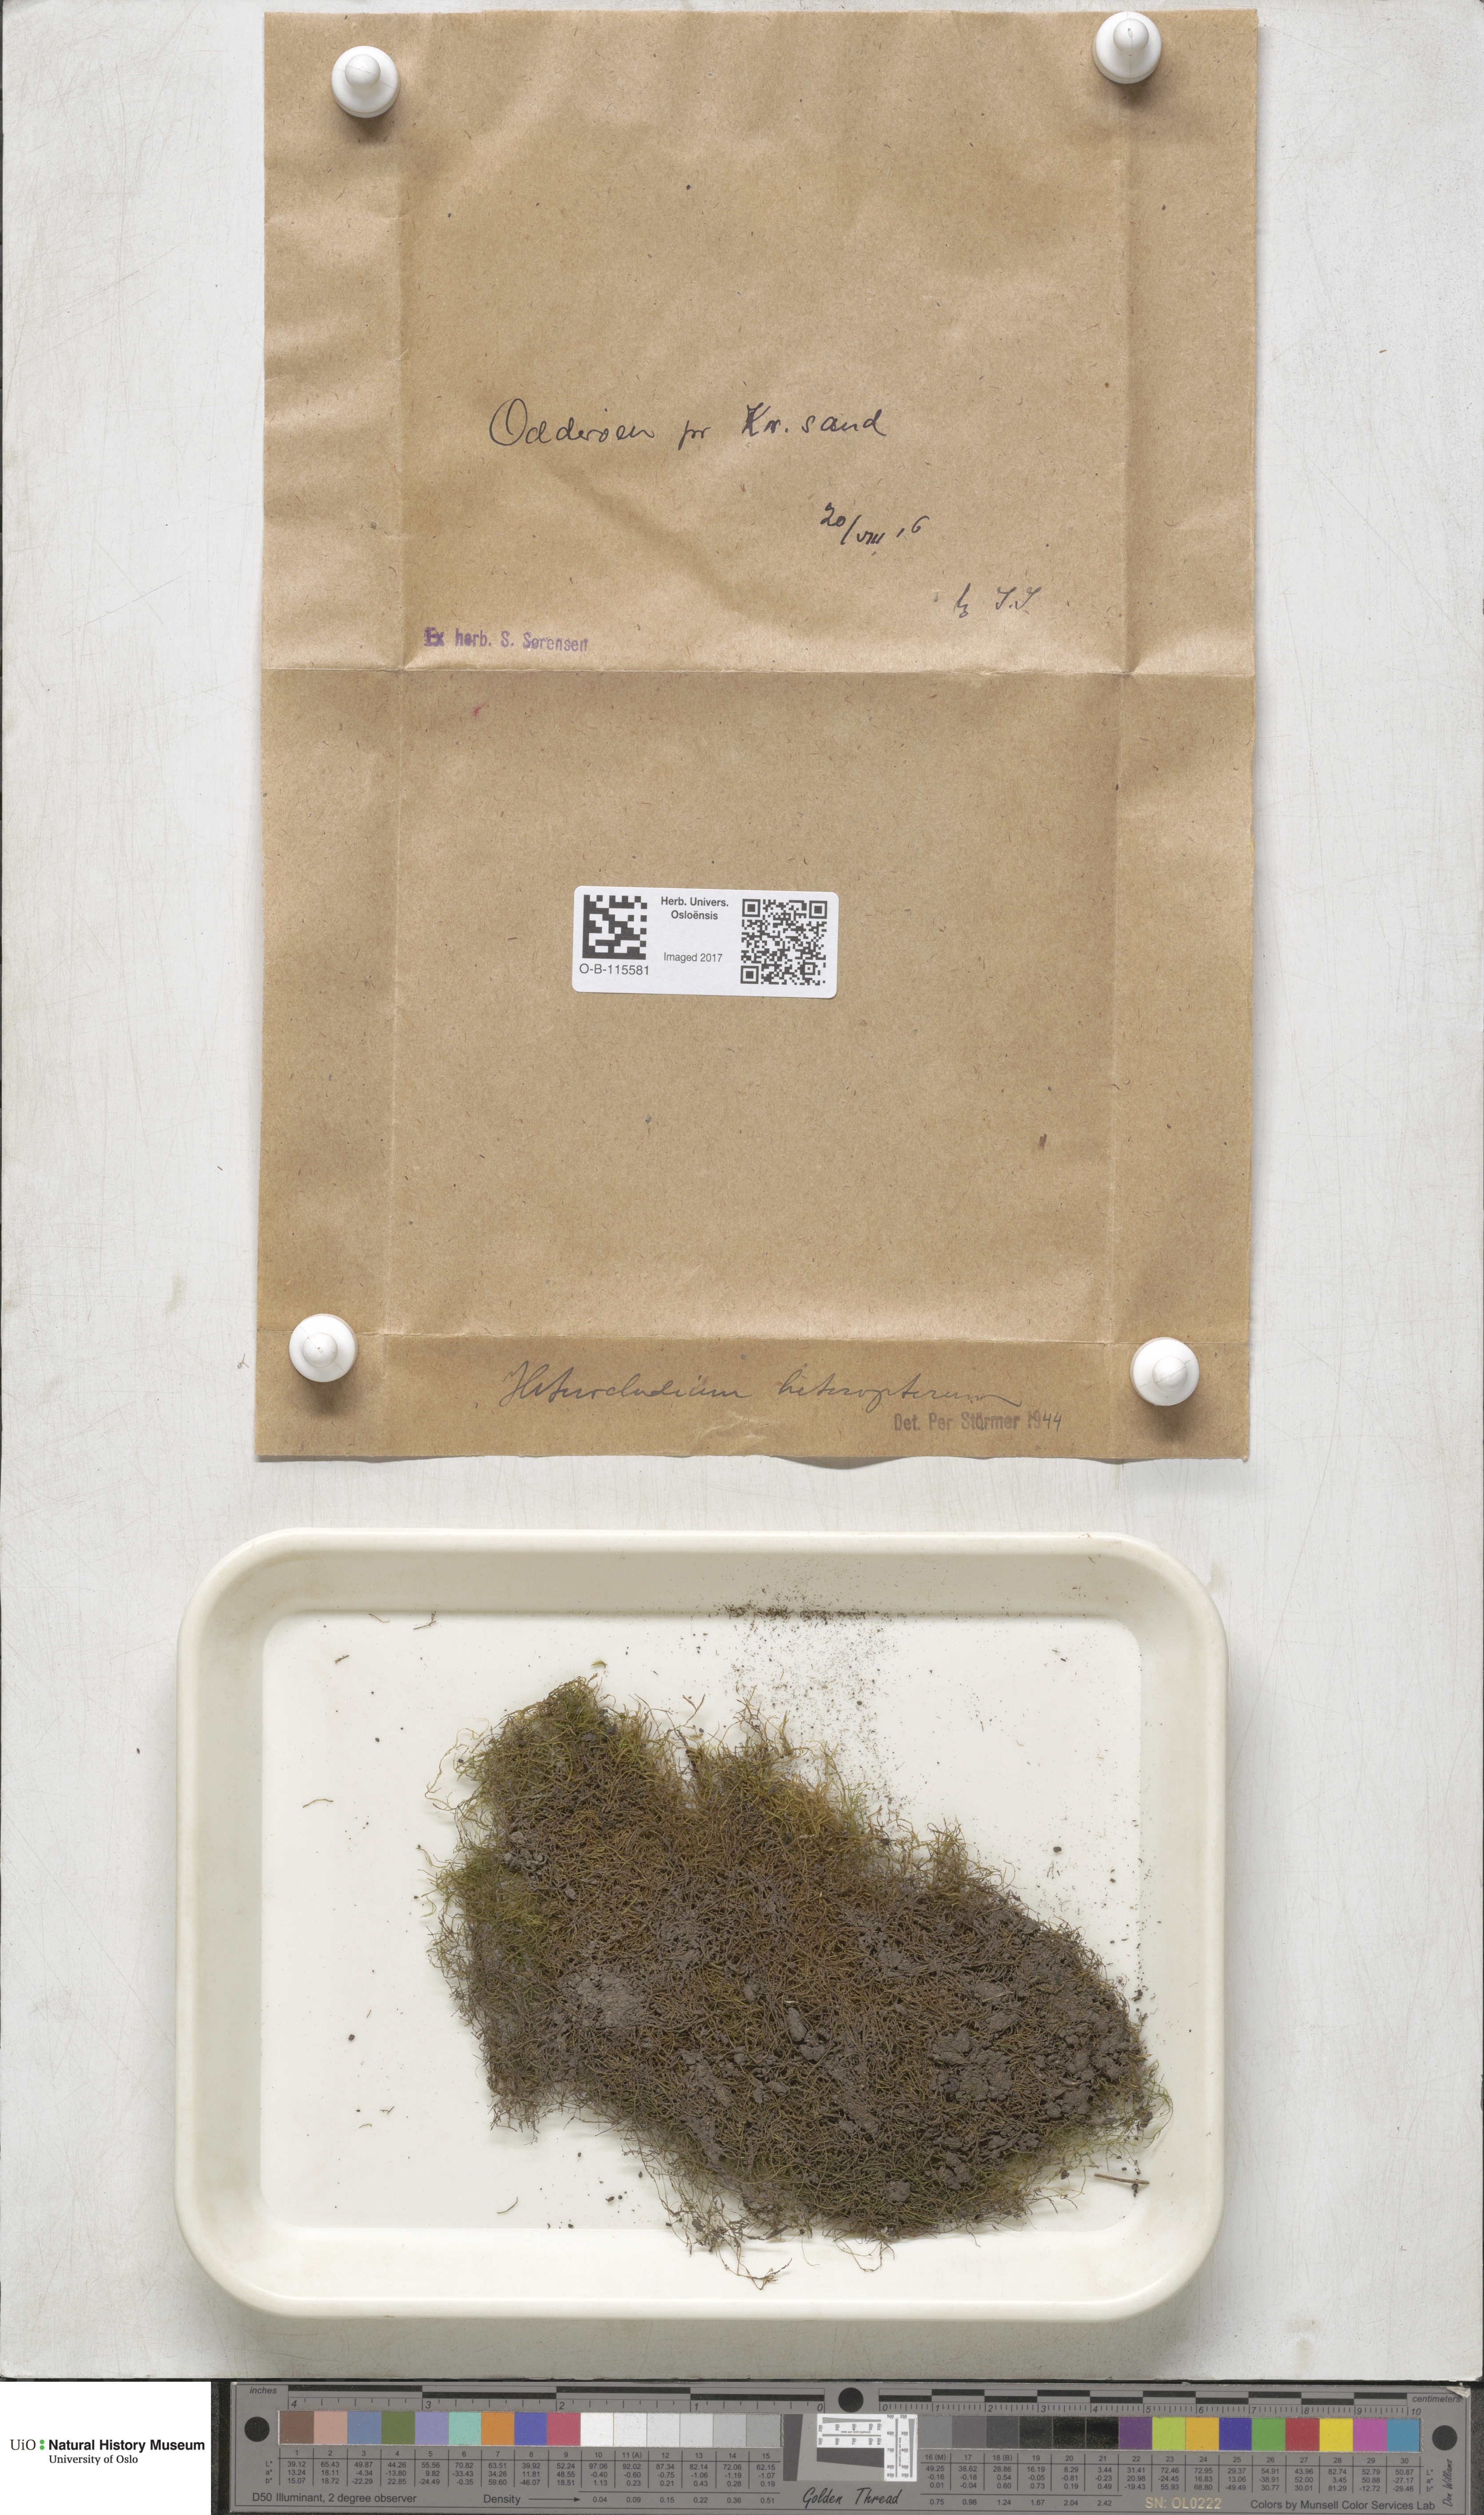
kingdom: Plantae
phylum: Bryophyta
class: Bryopsida
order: Hypnales
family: Lembophyllaceae
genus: Heterocladium
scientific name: Heterocladium heteropterum
